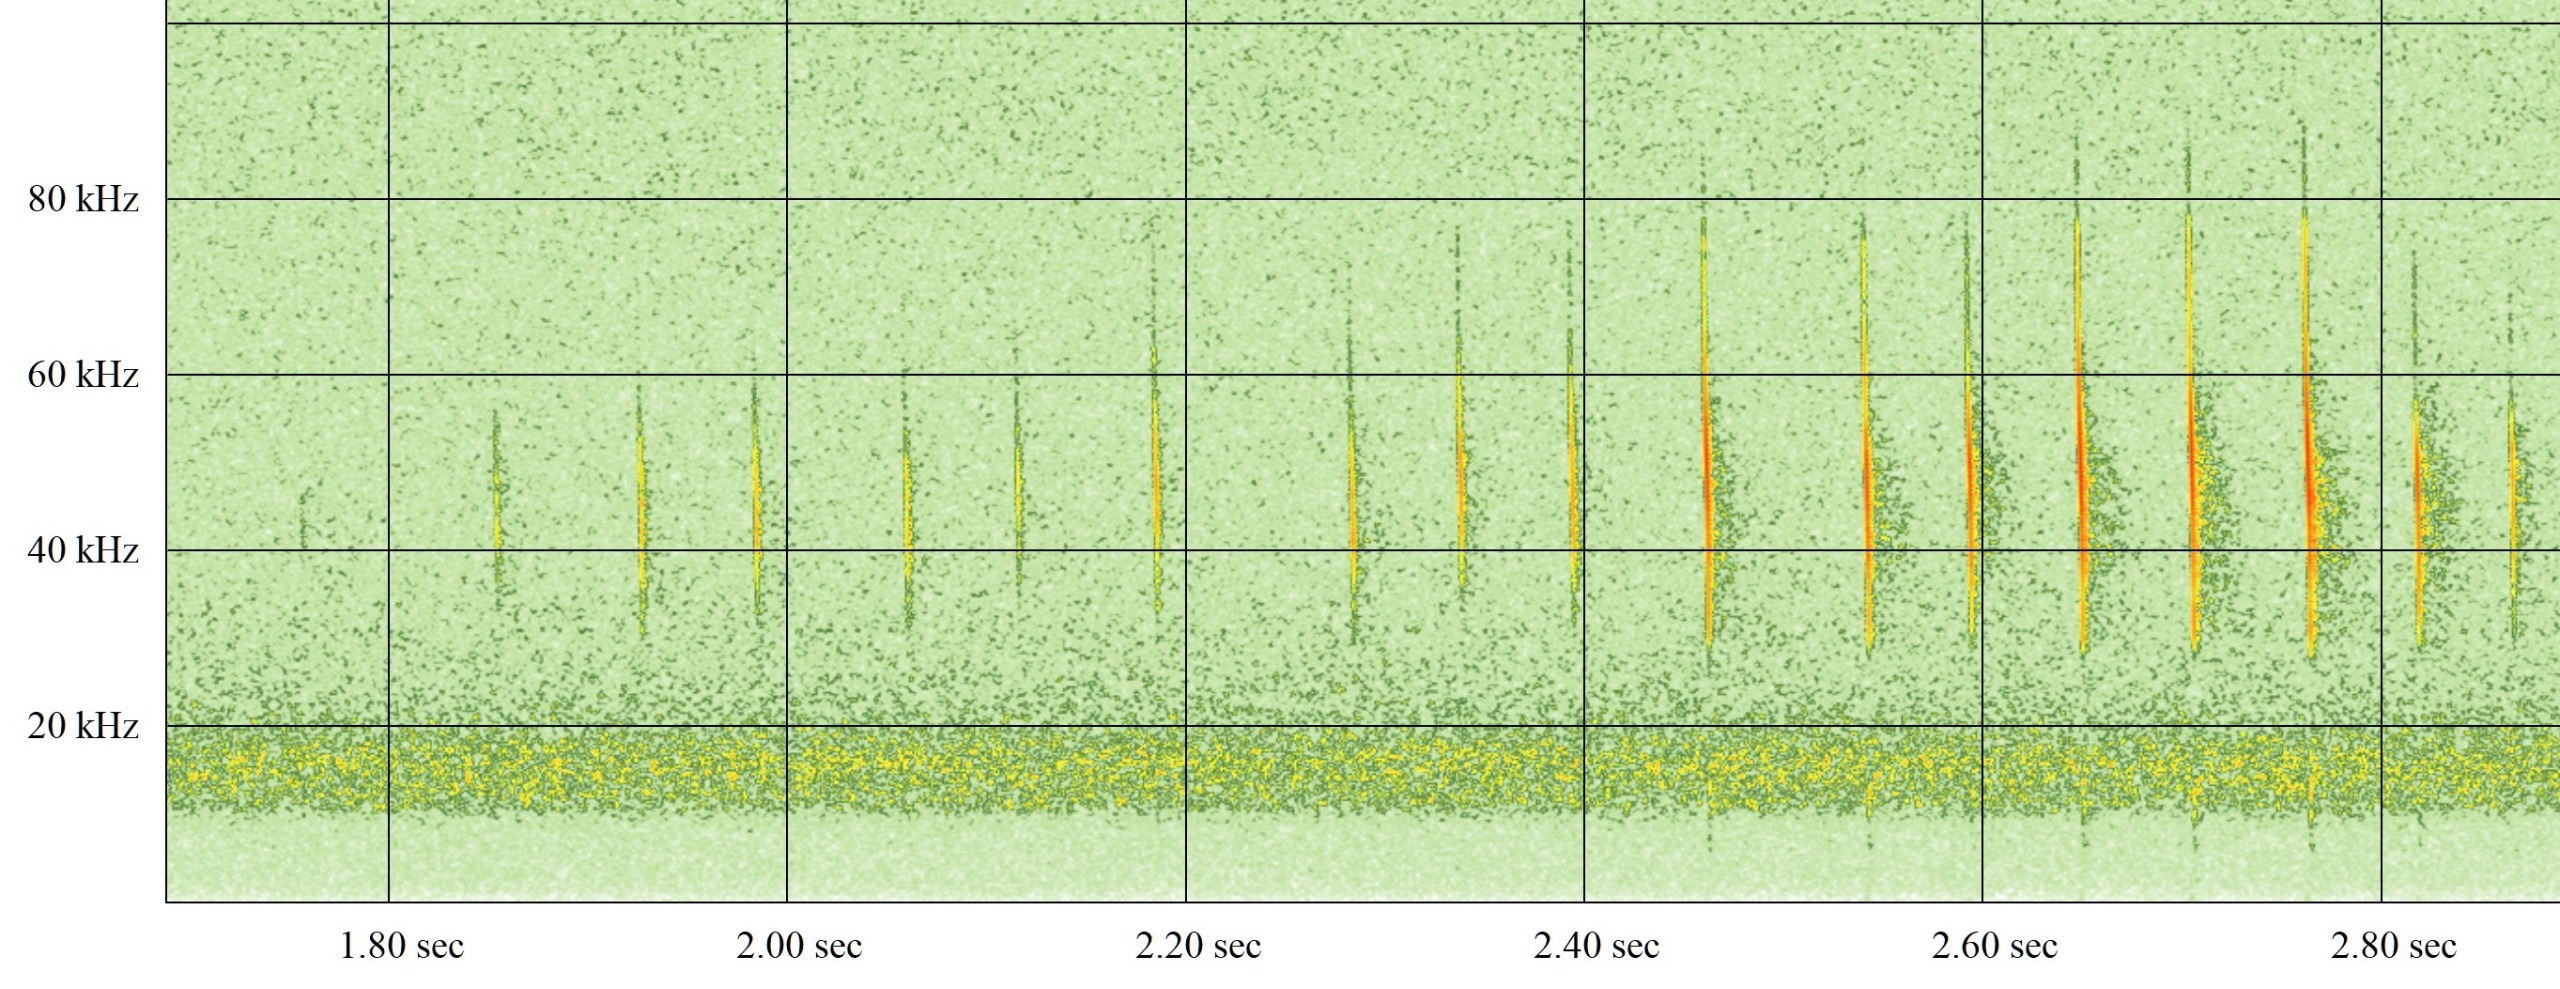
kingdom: Animalia
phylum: Chordata
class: Mammalia
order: Chiroptera
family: Vespertilionidae
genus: Myotis
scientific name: Myotis daubentonii
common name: Vandflagermus
